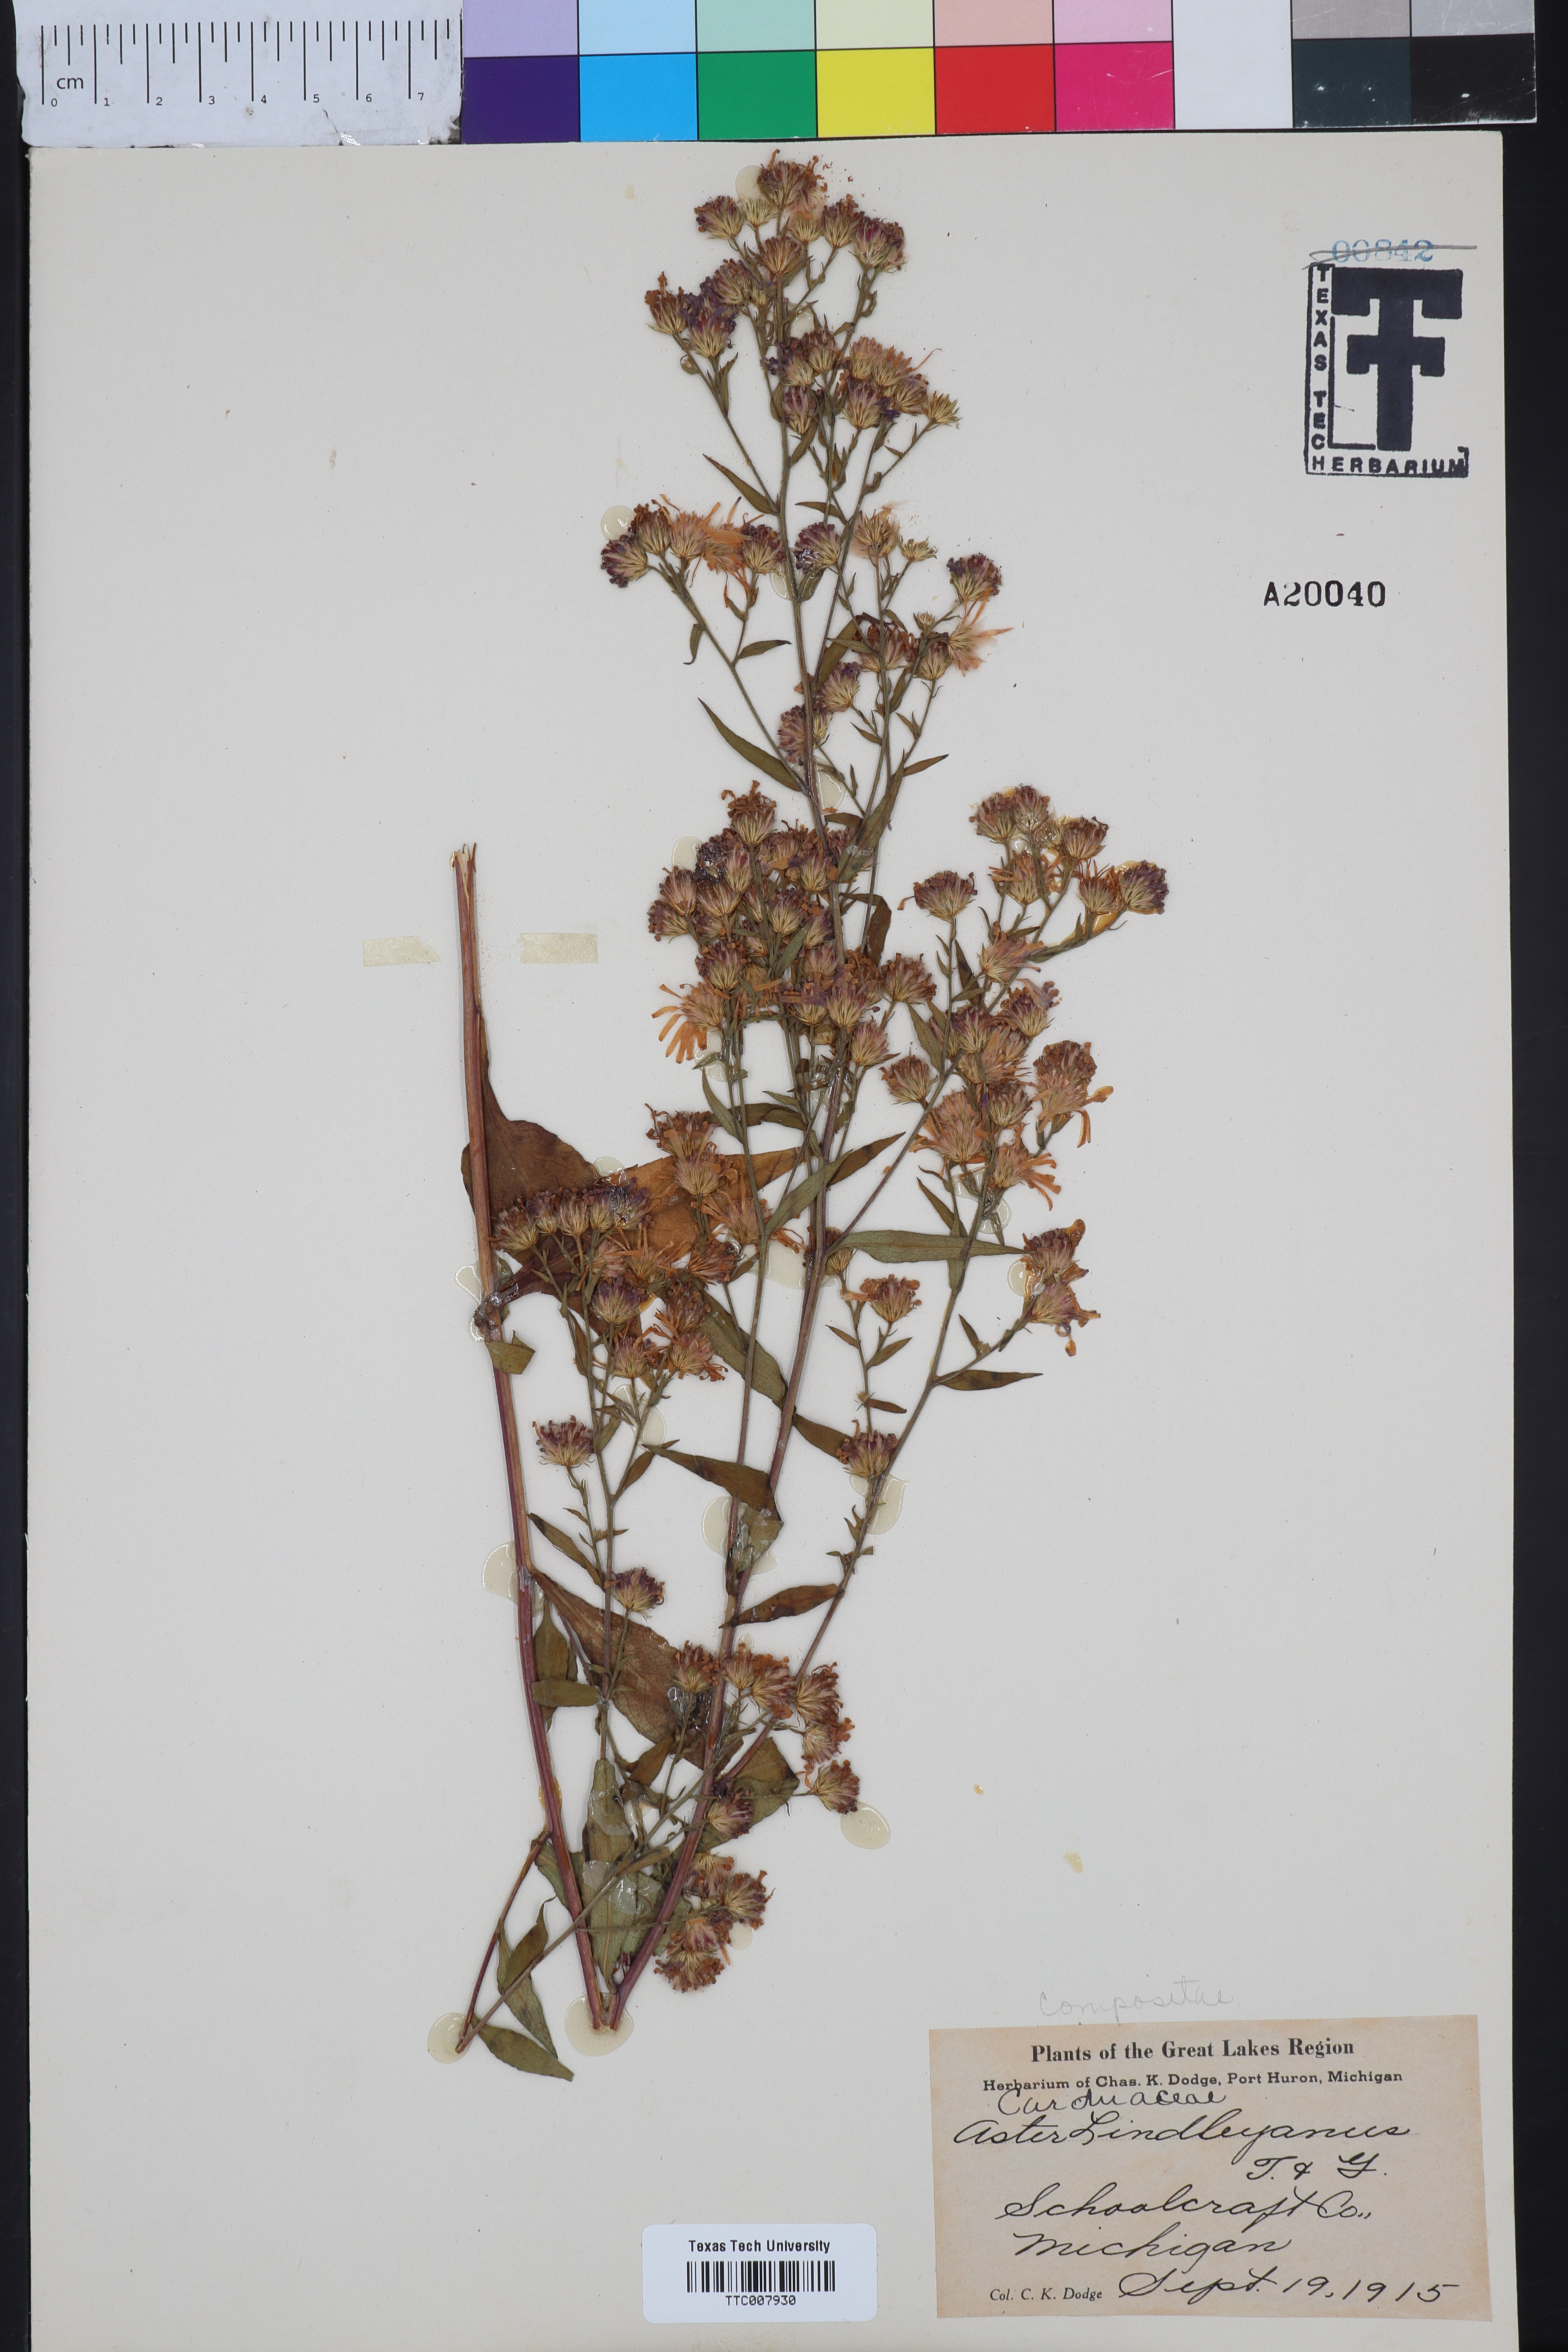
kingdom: Plantae
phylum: Tracheophyta
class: Magnoliopsida
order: Asterales
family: Asteraceae
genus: Symphyotrichum
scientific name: Symphyotrichum ciliolatum
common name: Fringed blue aster
